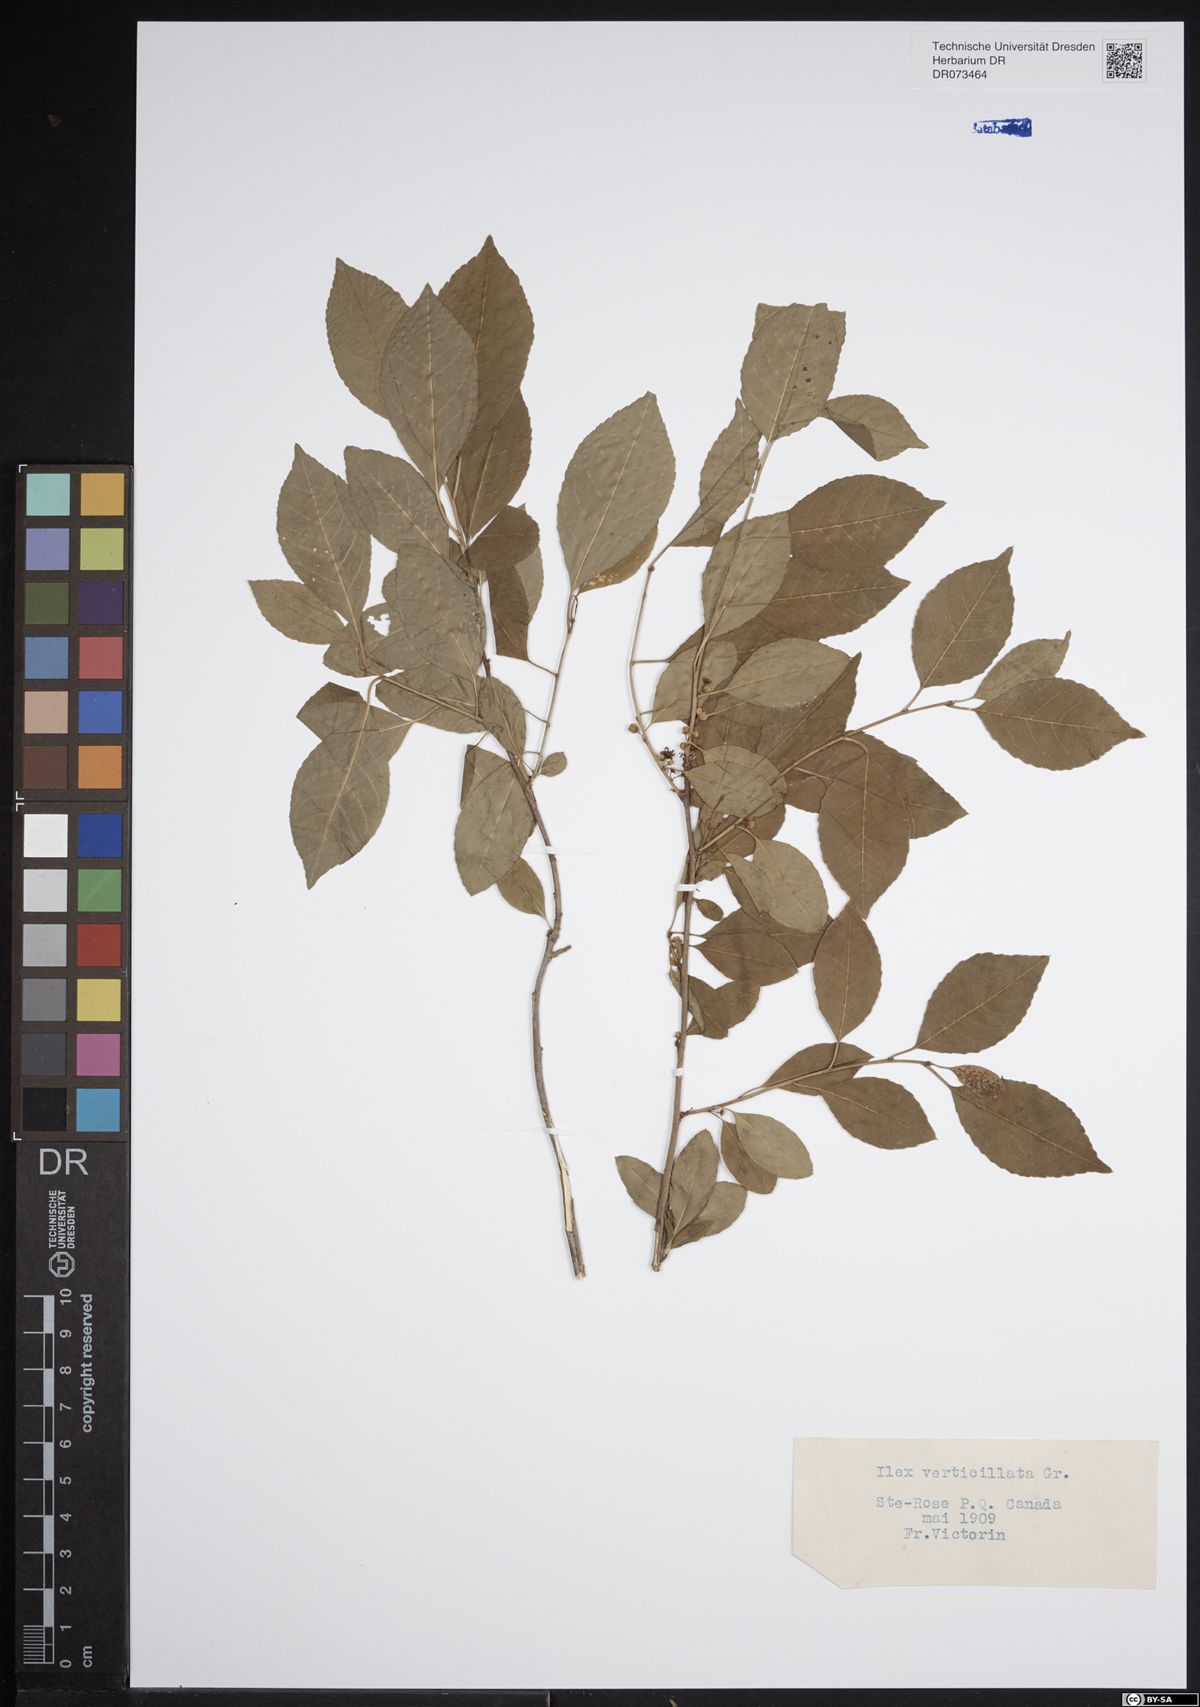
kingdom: Plantae
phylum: Tracheophyta
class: Magnoliopsida
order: Aquifoliales
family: Aquifoliaceae
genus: Ilex
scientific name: Ilex verticillata
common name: Virginia winterberry
